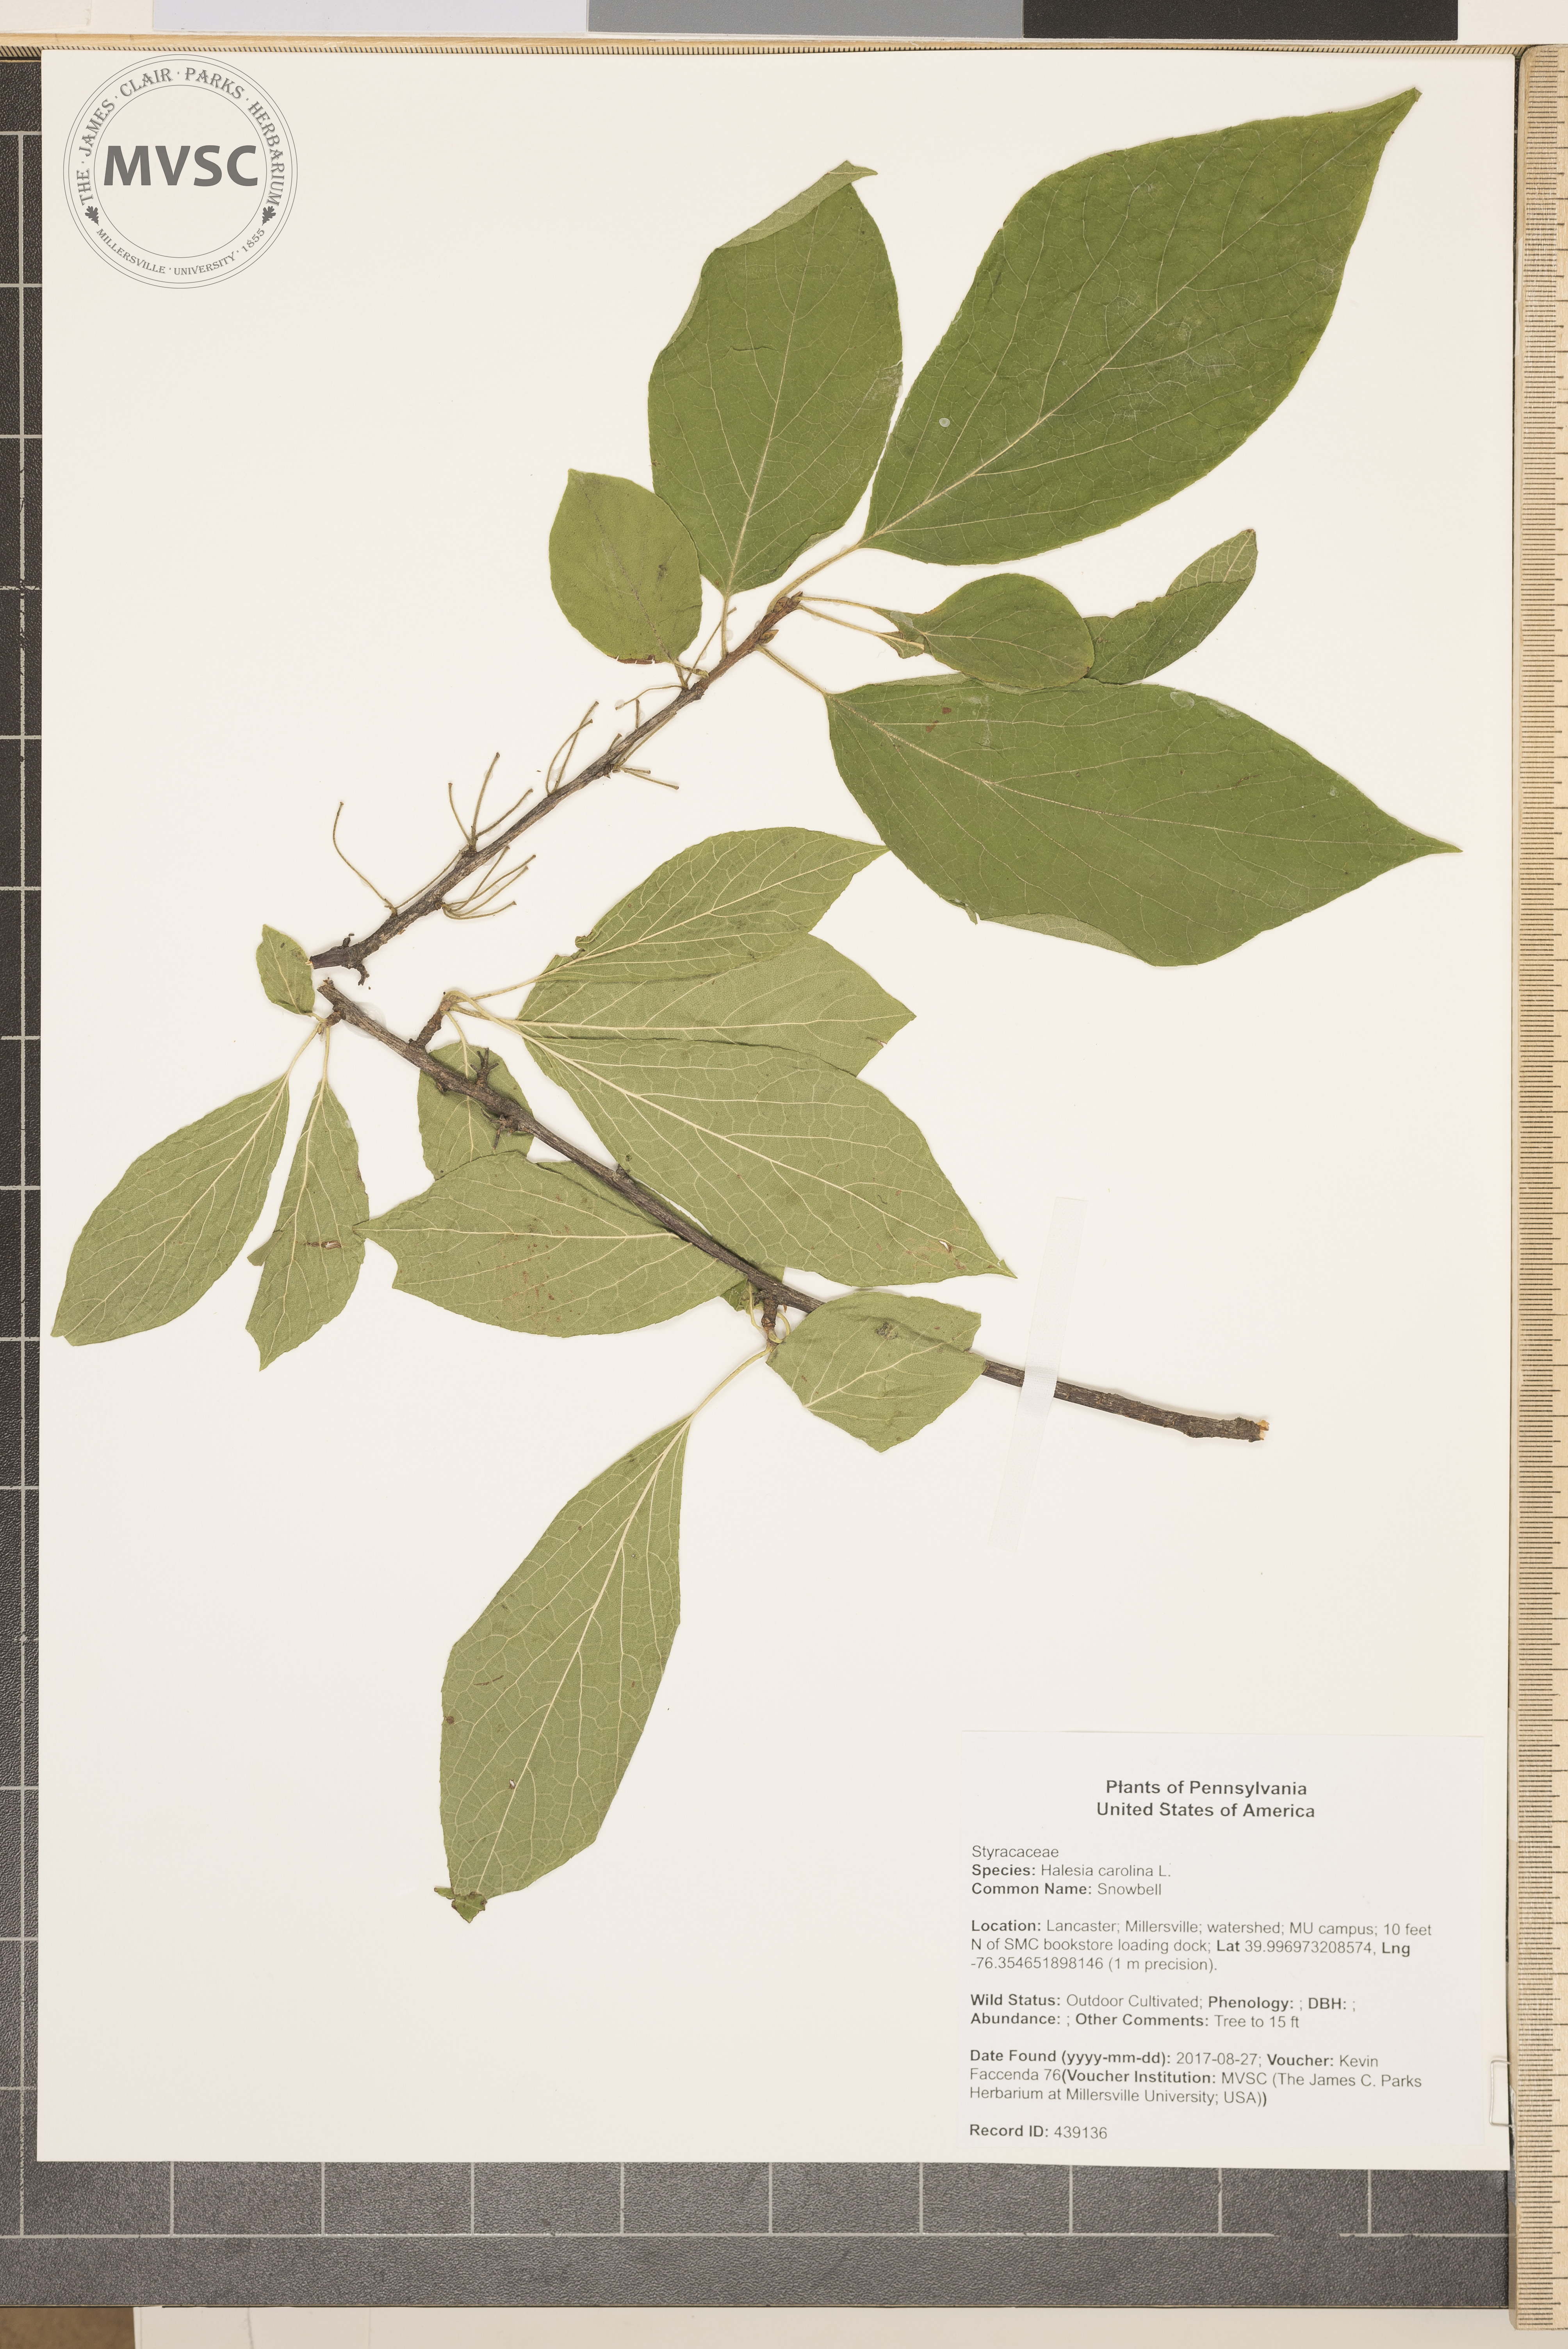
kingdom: Plantae
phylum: Tracheophyta
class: Magnoliopsida
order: Ericales
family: Styracaceae
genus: Halesia
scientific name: Halesia carolina
